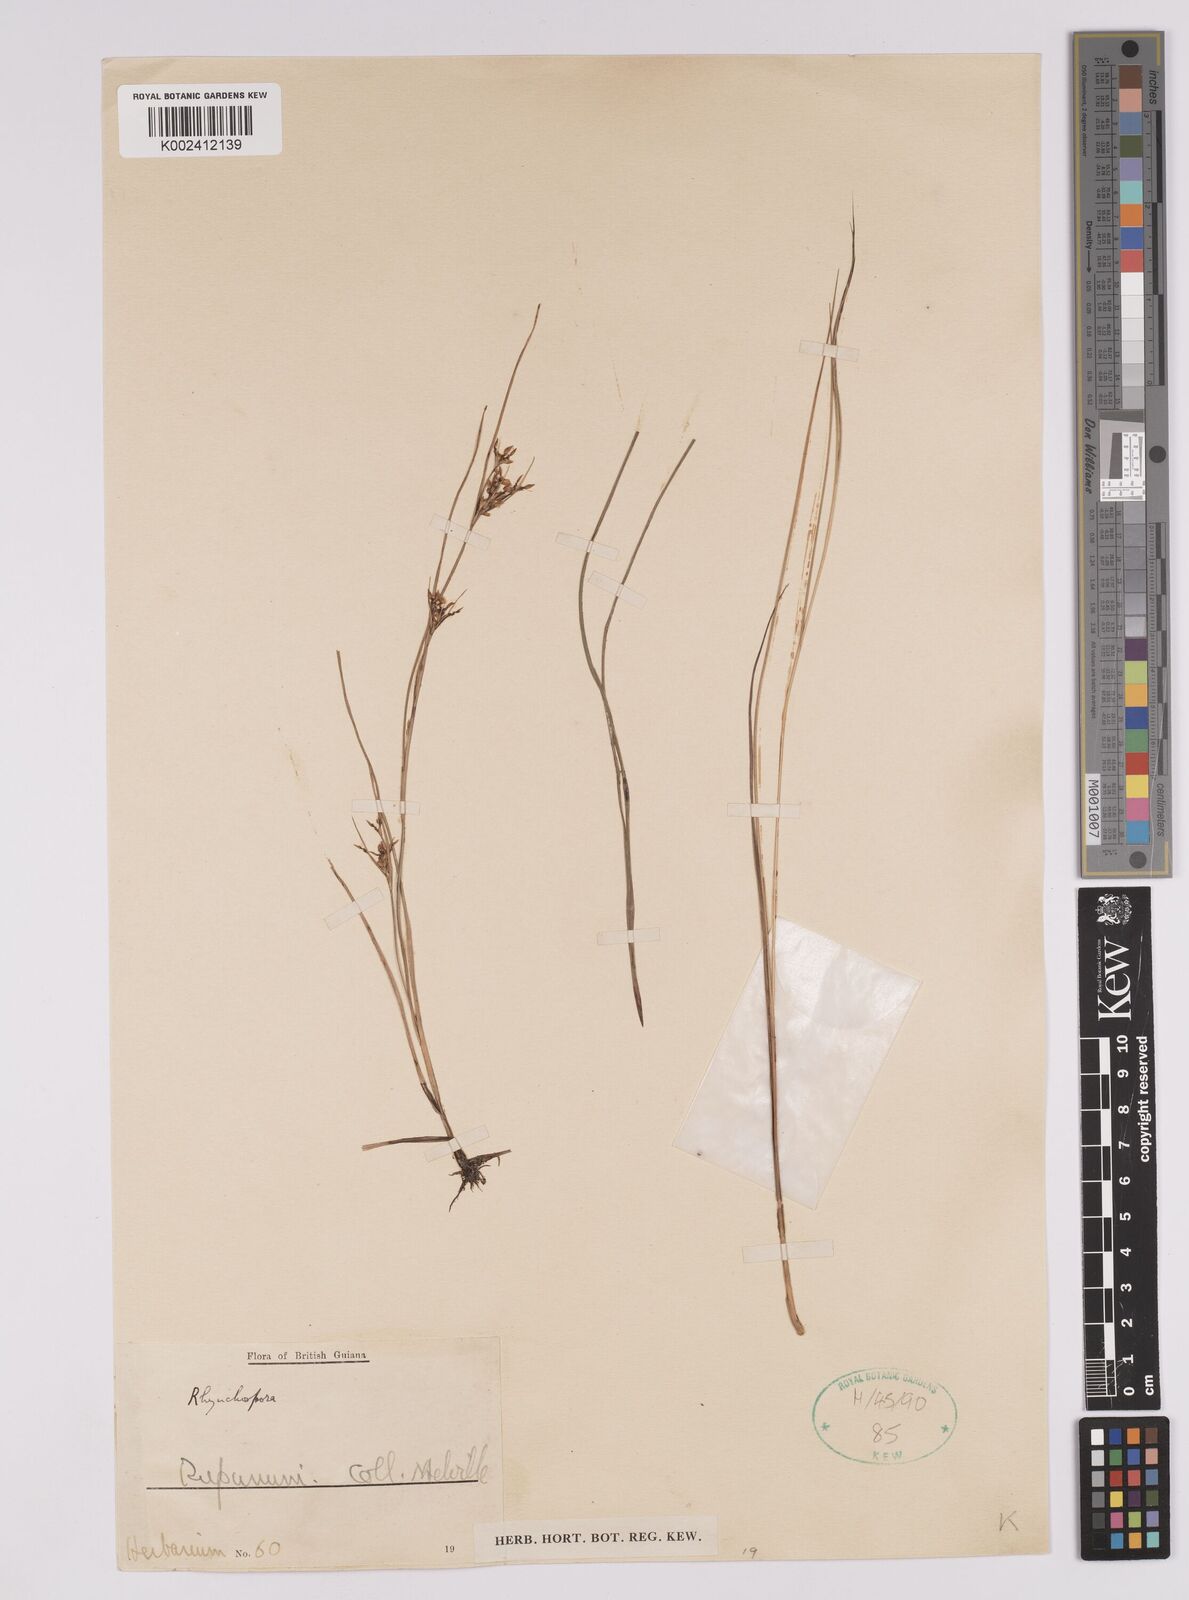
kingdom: Plantae
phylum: Tracheophyta
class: Liliopsida
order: Poales
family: Cyperaceae
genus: Rhynchospora
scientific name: Rhynchospora
